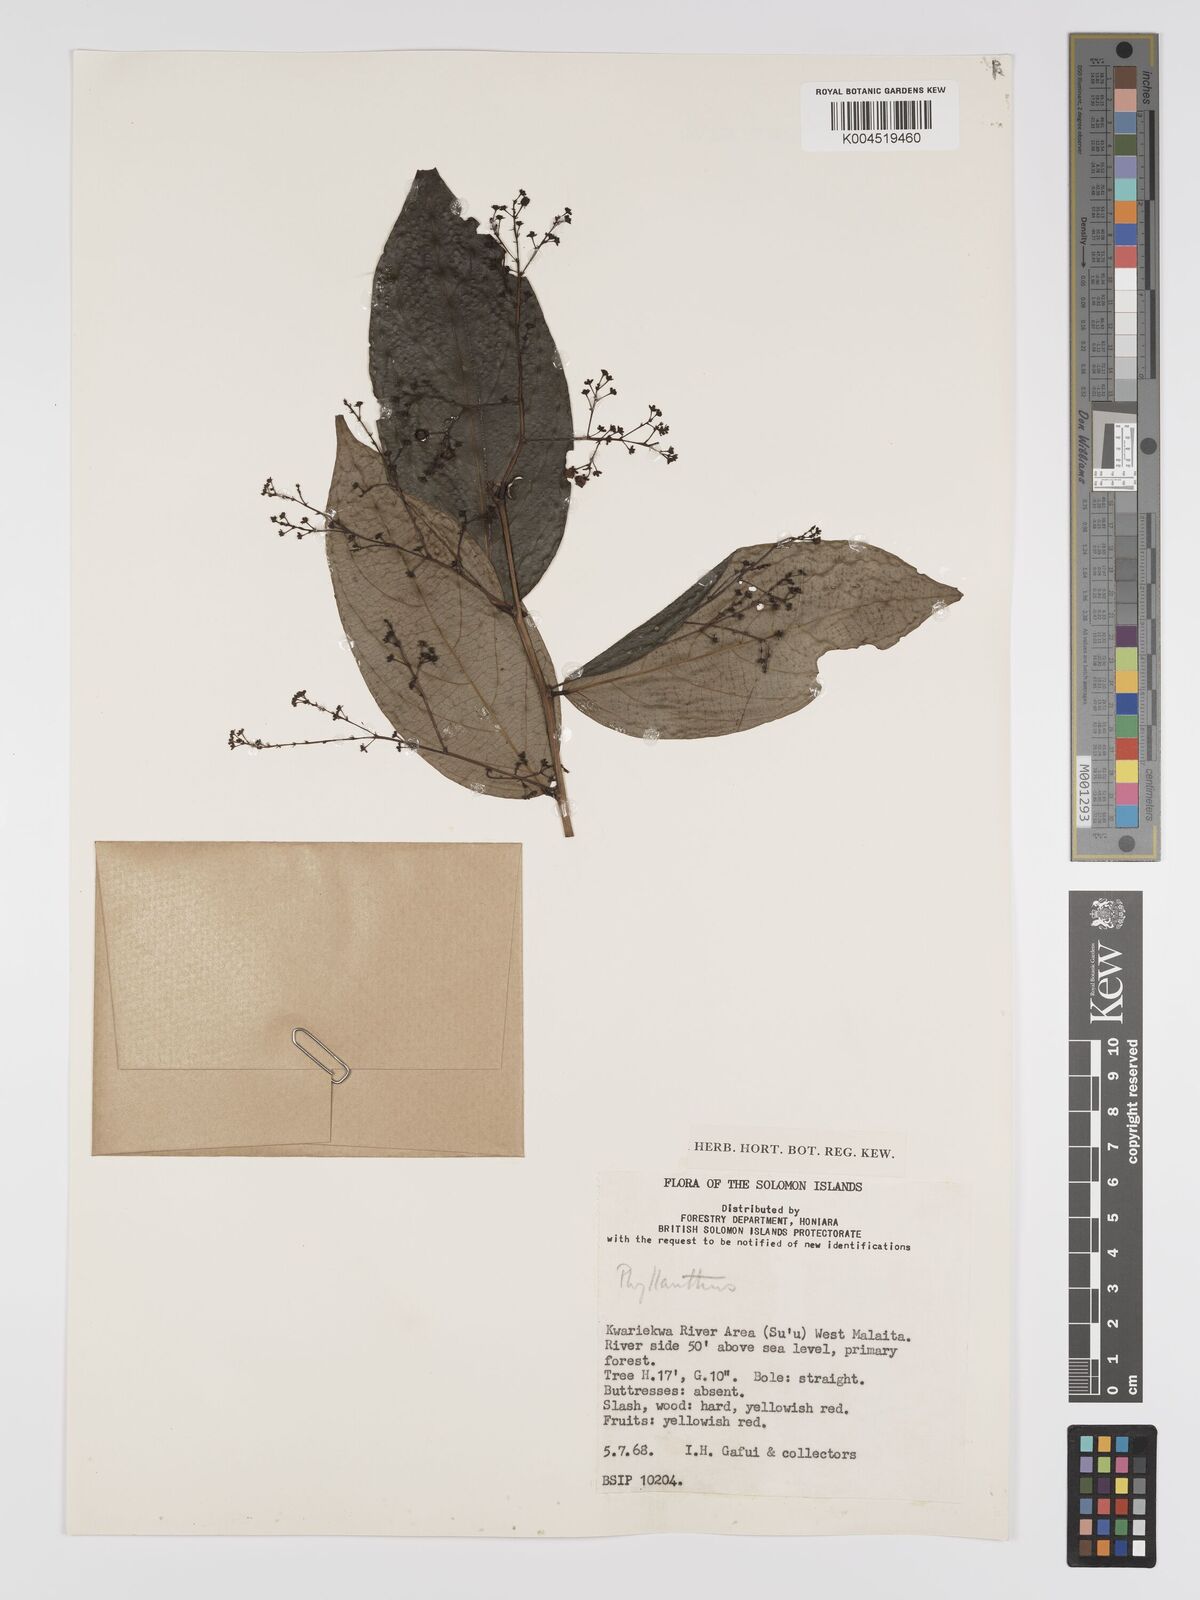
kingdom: Plantae
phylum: Tracheophyta
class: Magnoliopsida
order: Malpighiales
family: Phyllanthaceae
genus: Phyllanthus
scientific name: Phyllanthus clamboides
